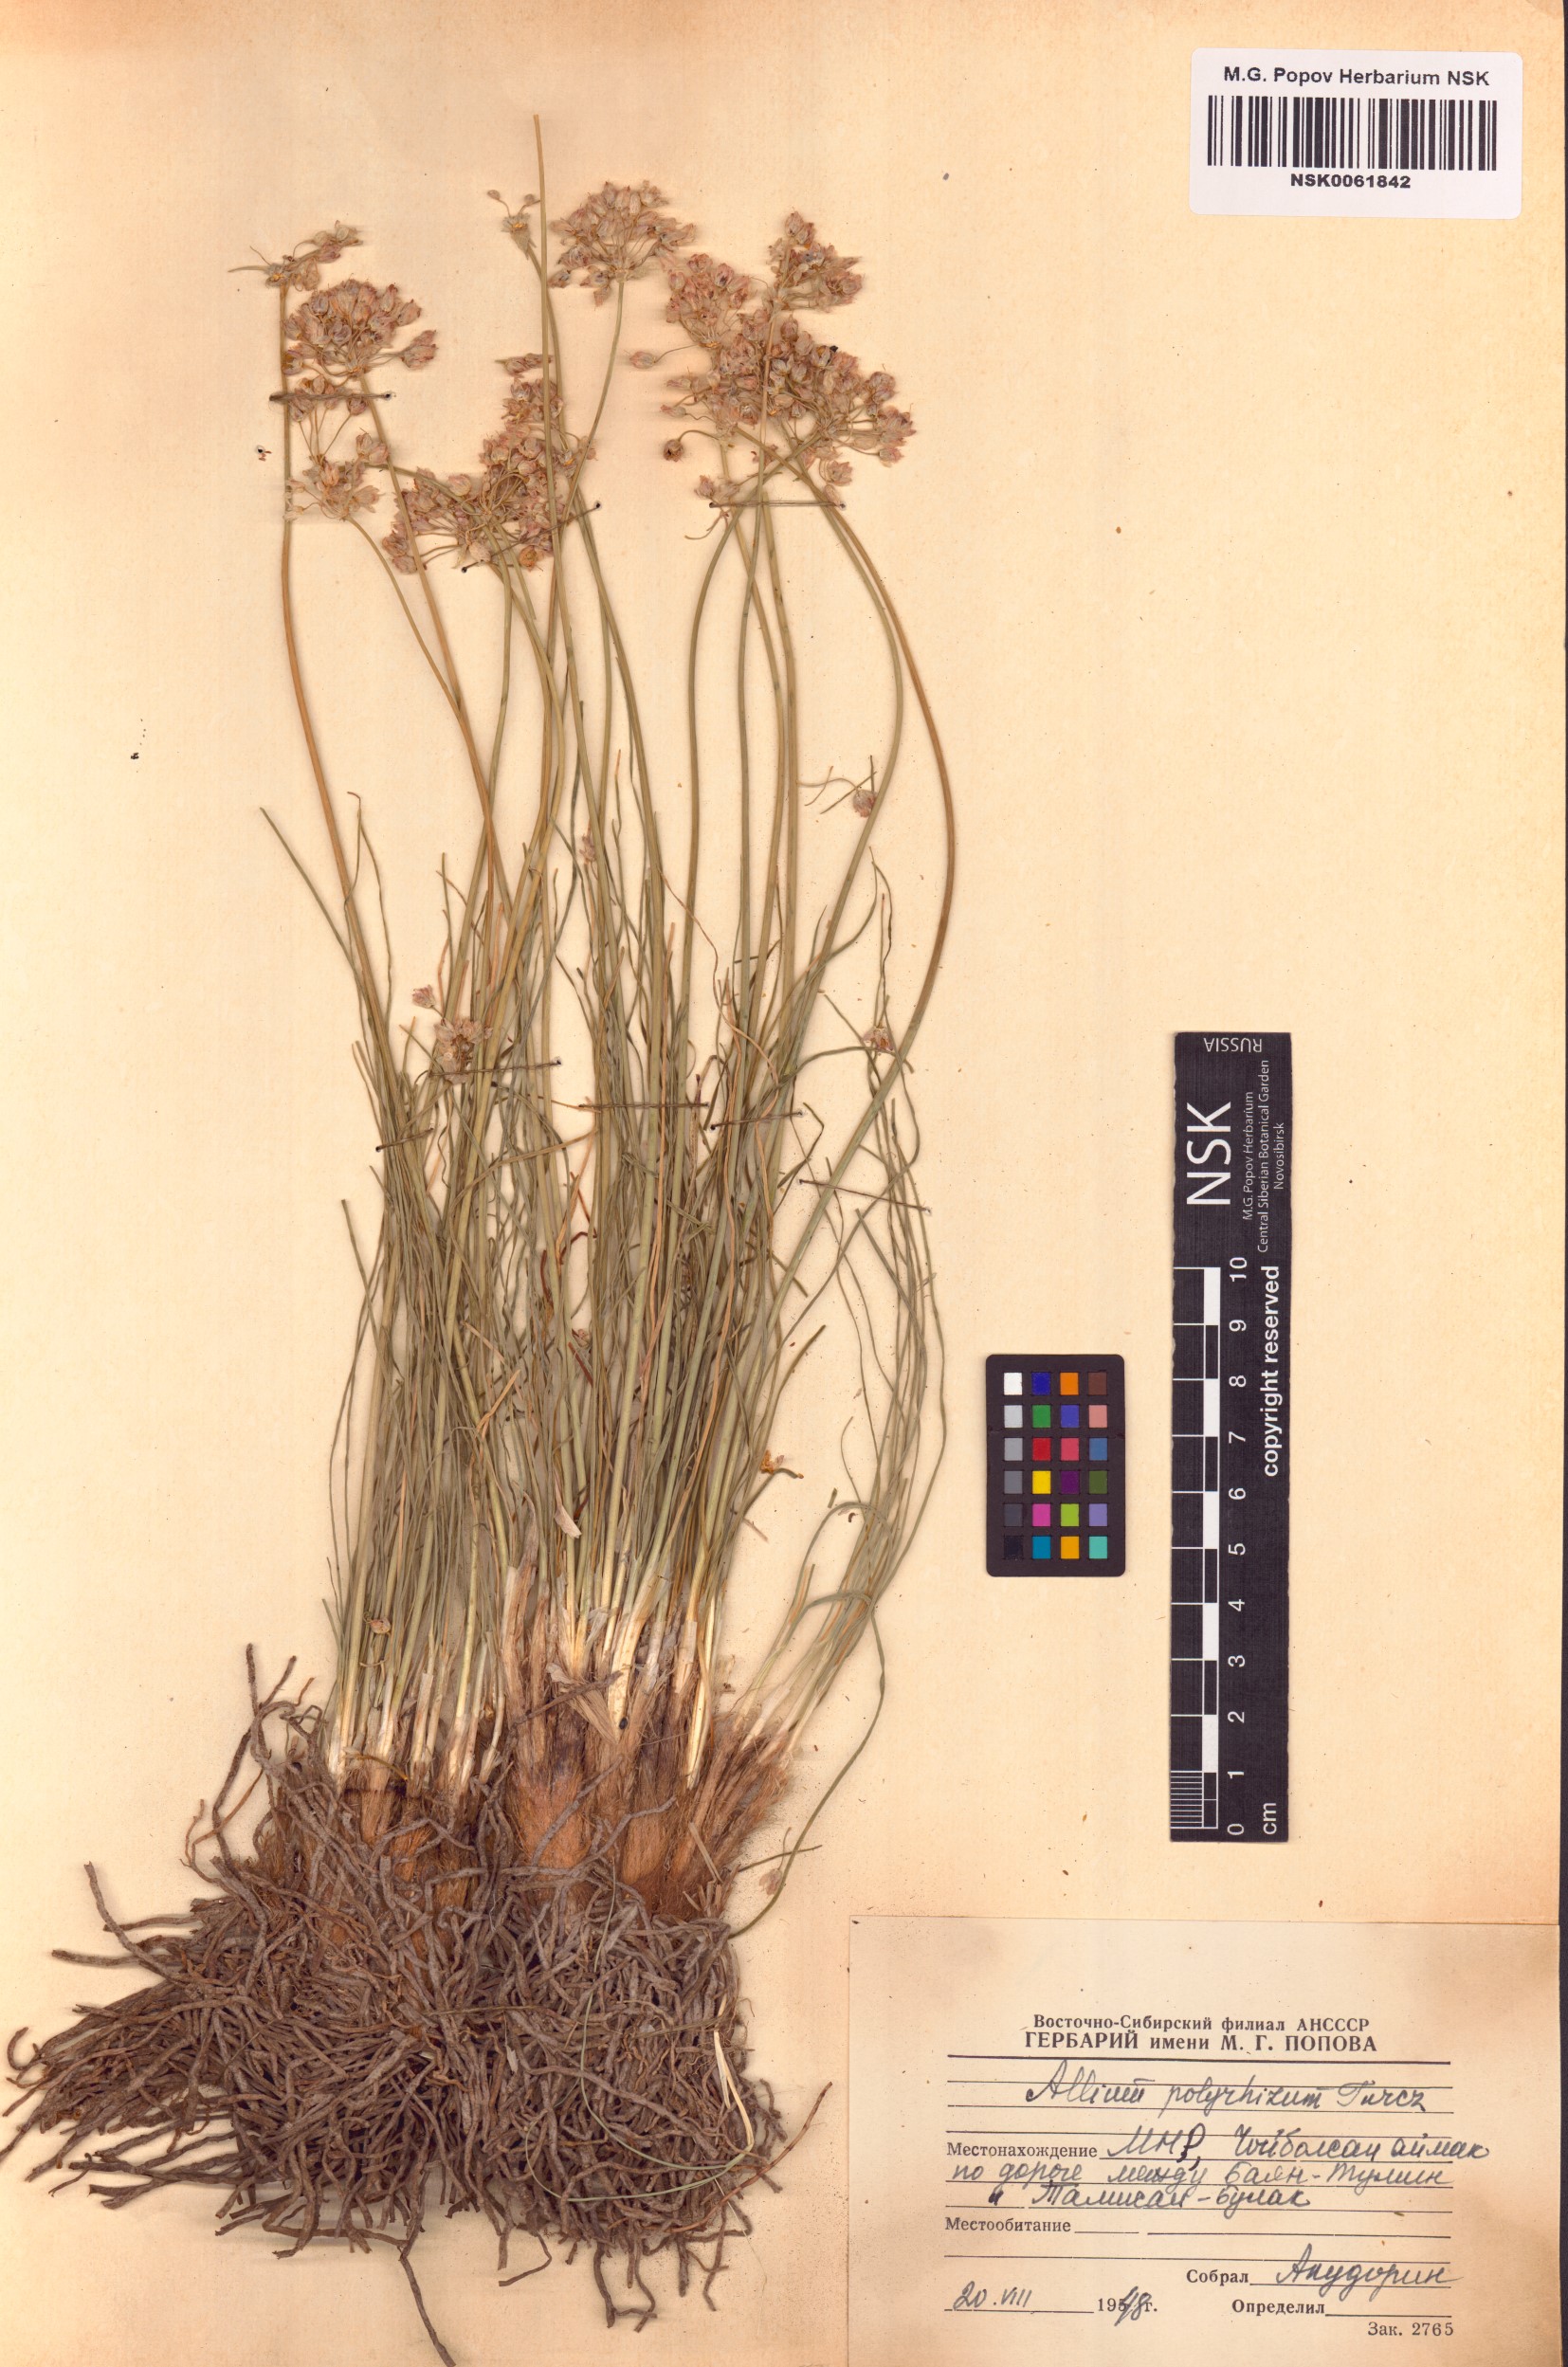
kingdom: Plantae
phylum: Tracheophyta
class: Liliopsida
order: Asparagales
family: Amaryllidaceae
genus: Allium
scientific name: Allium polyrhizum
